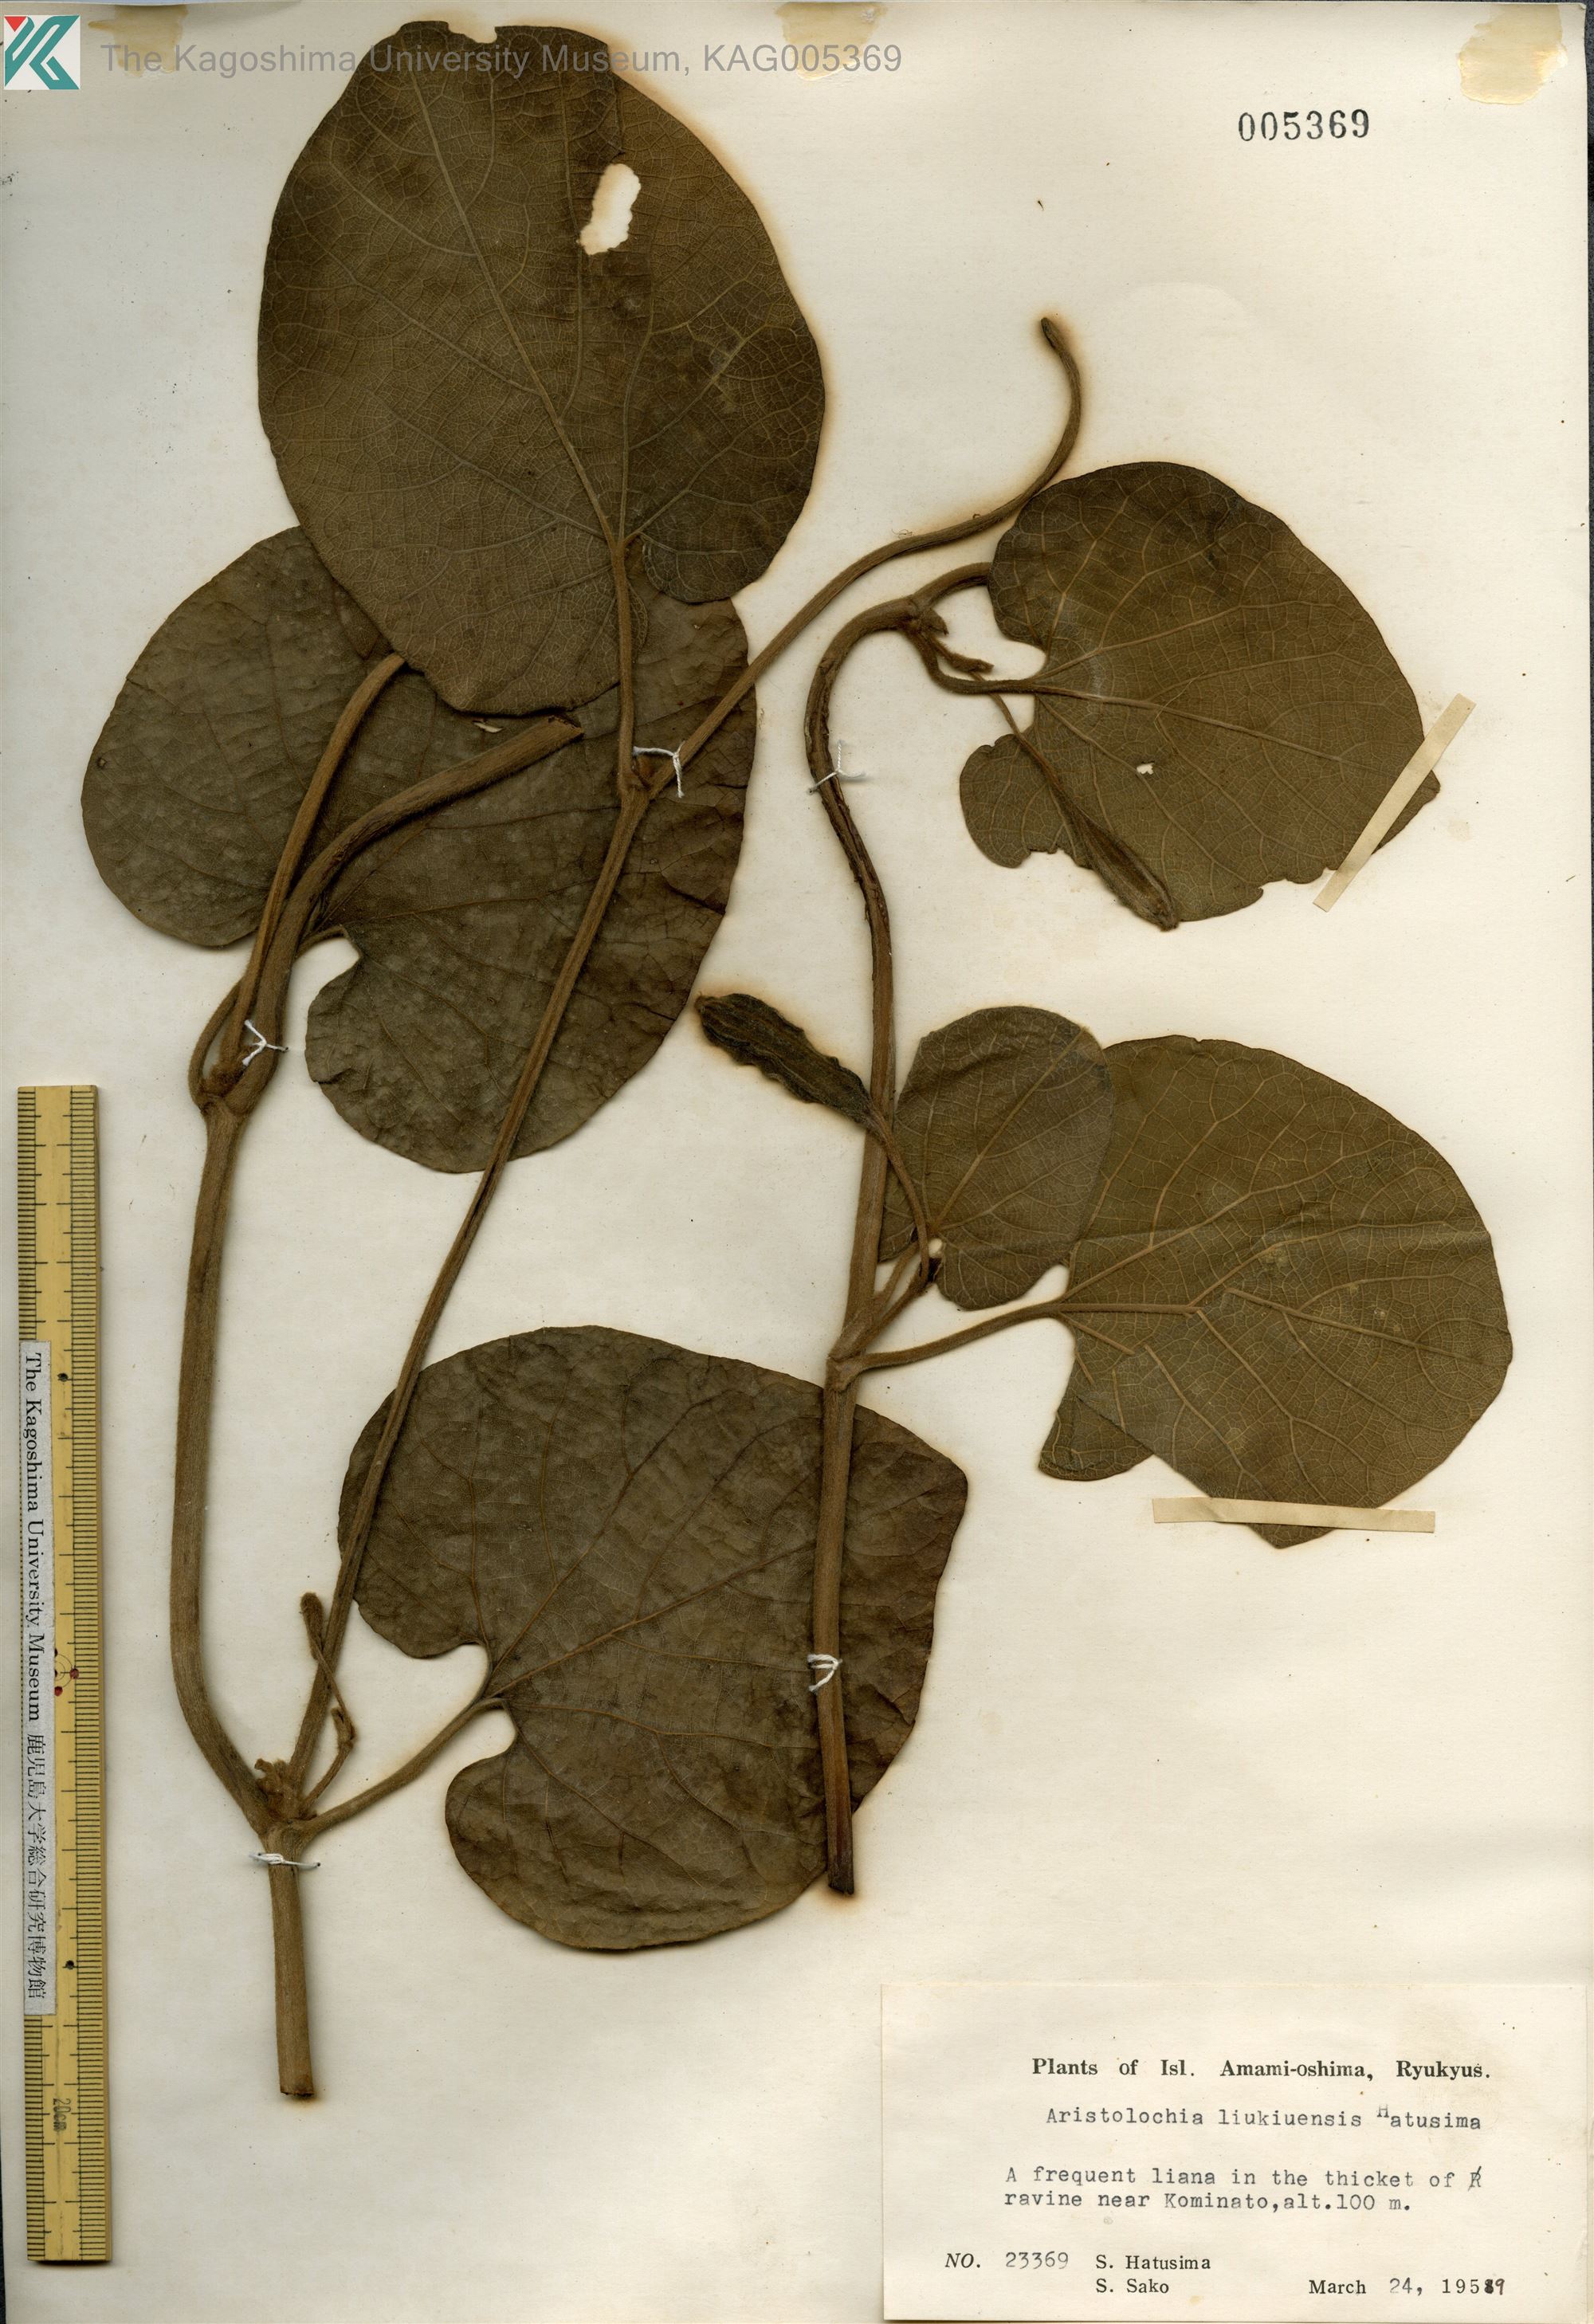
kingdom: Plantae
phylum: Tracheophyta
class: Magnoliopsida
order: Piperales
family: Aristolochiaceae
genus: Isotrema
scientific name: Isotrema liukiuense
